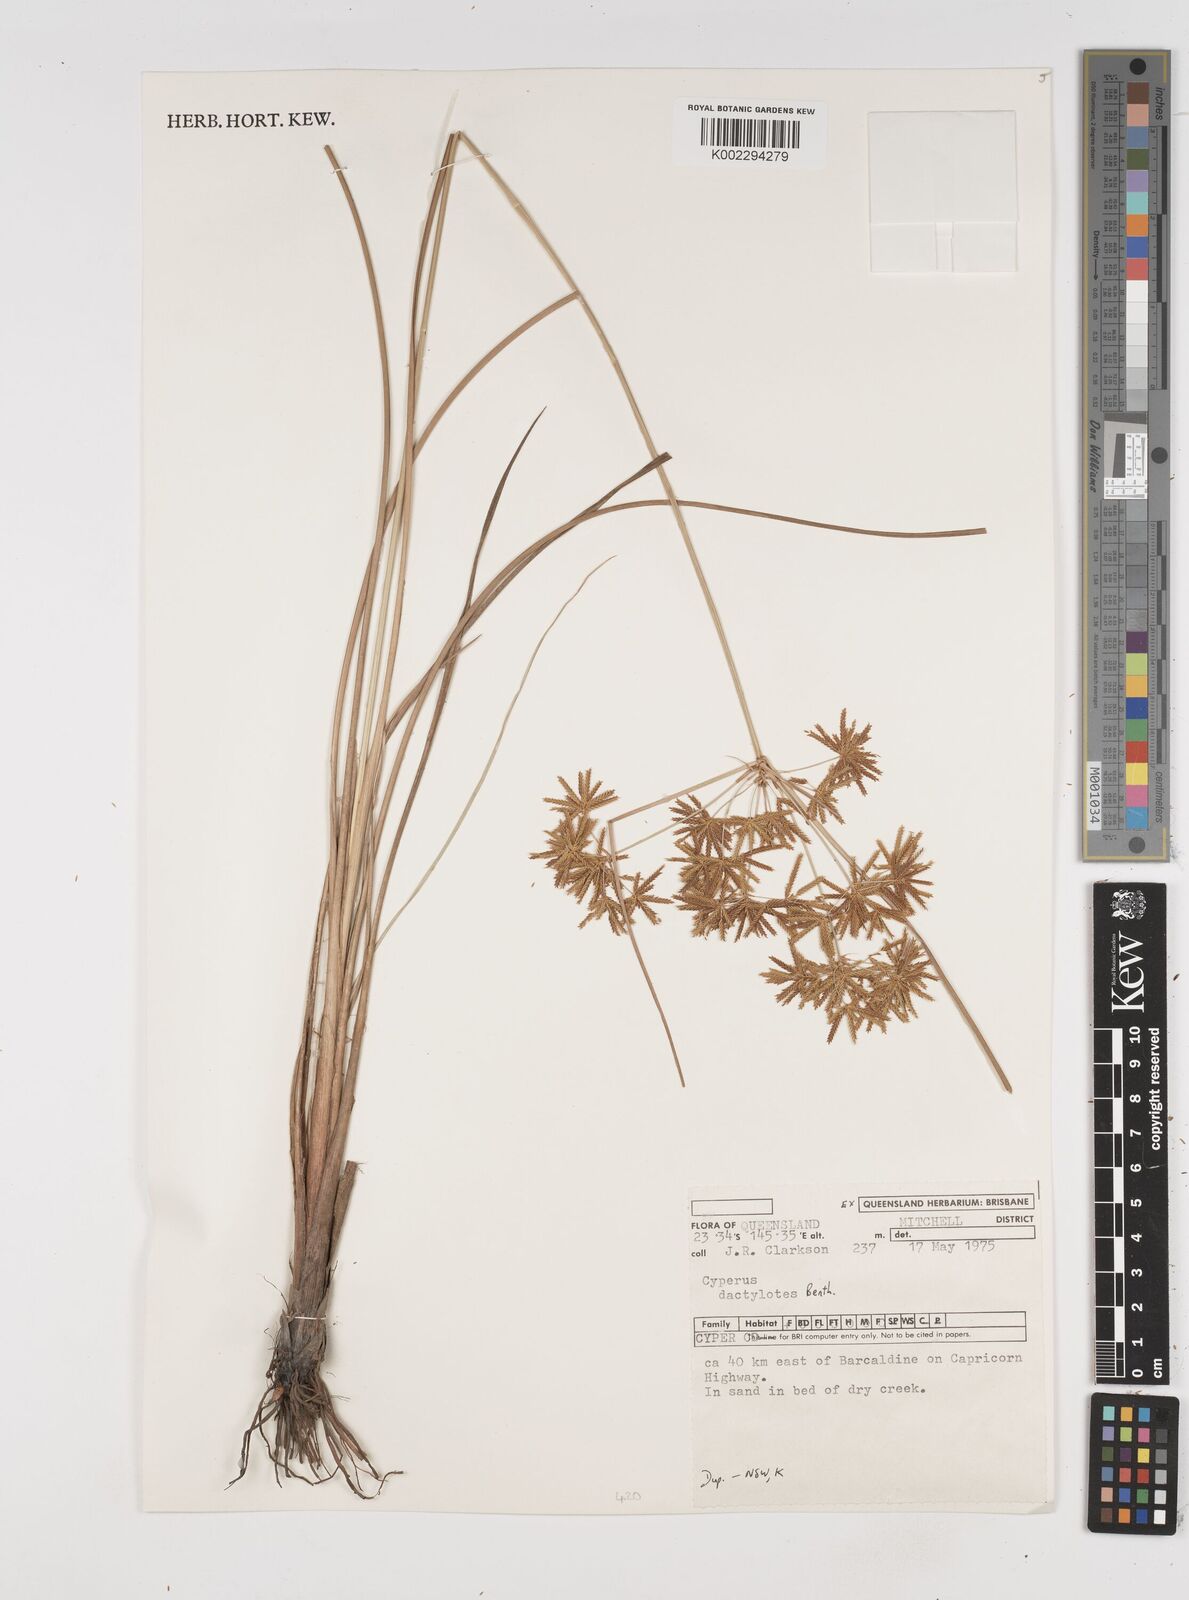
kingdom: Plantae
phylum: Tracheophyta
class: Liliopsida
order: Poales
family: Cyperaceae
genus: Cyperus
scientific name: Cyperus dactylotes
